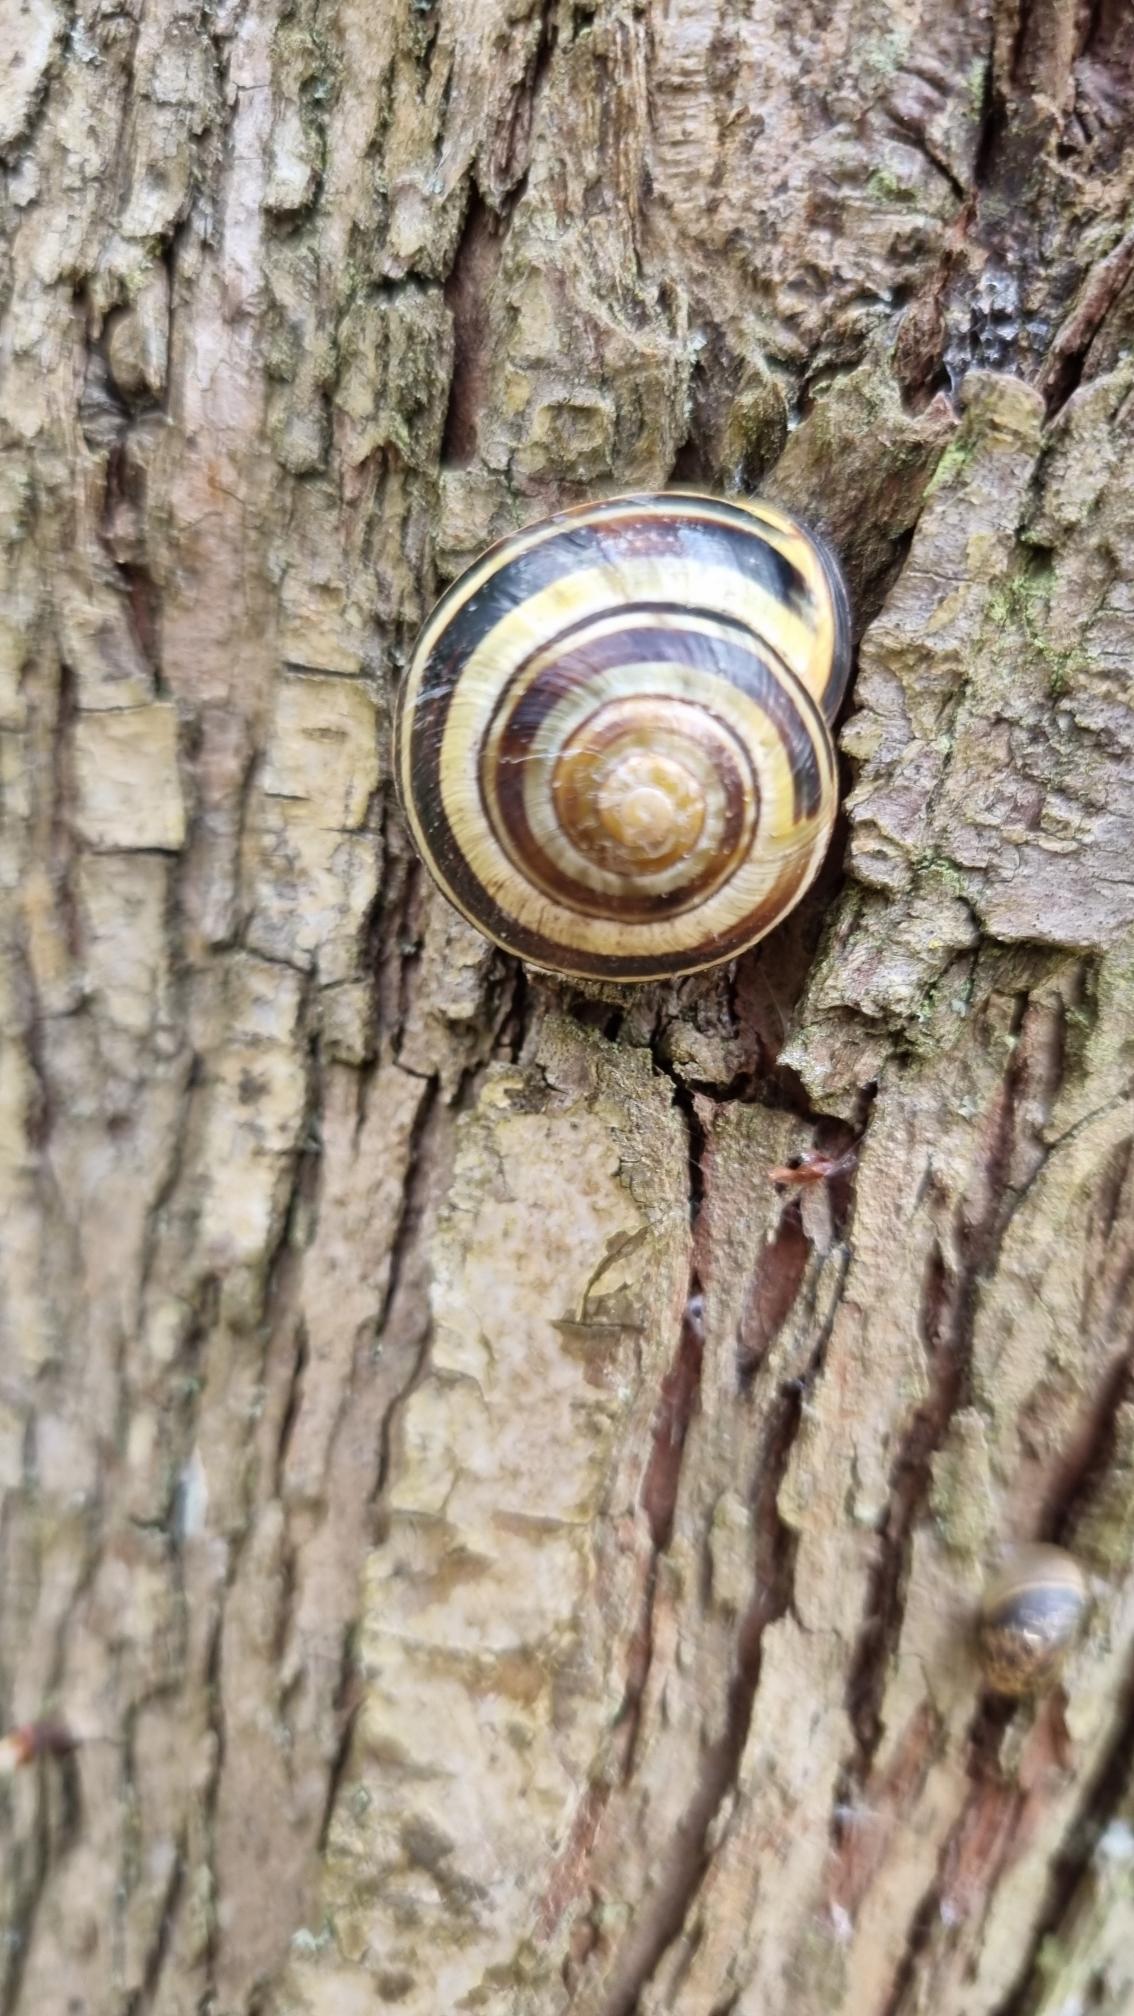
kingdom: Animalia
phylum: Mollusca
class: Gastropoda
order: Stylommatophora
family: Helicidae
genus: Cepaea
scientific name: Cepaea nemoralis
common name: Lundsnegl
